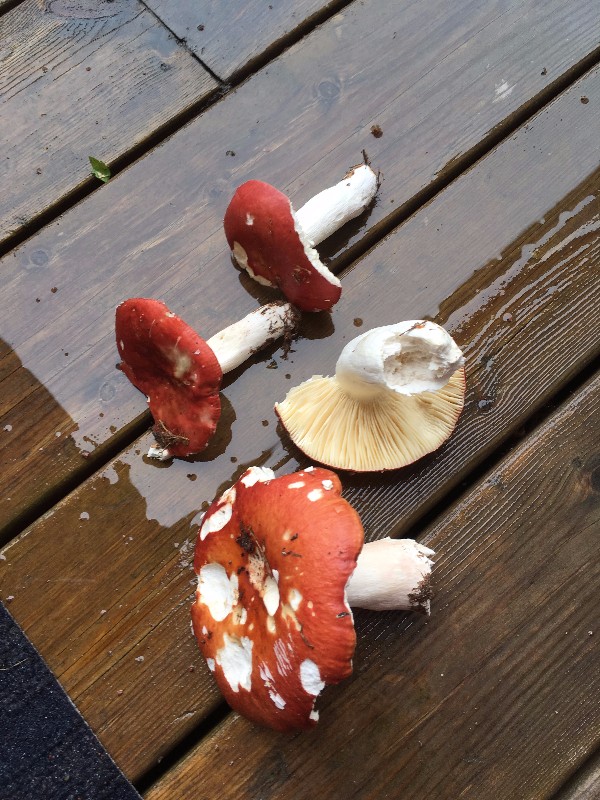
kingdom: Fungi
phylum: Basidiomycota
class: Agaricomycetes
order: Russulales
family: Russulaceae
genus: Russula
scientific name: Russula paludosa
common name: prægtig skørhat
